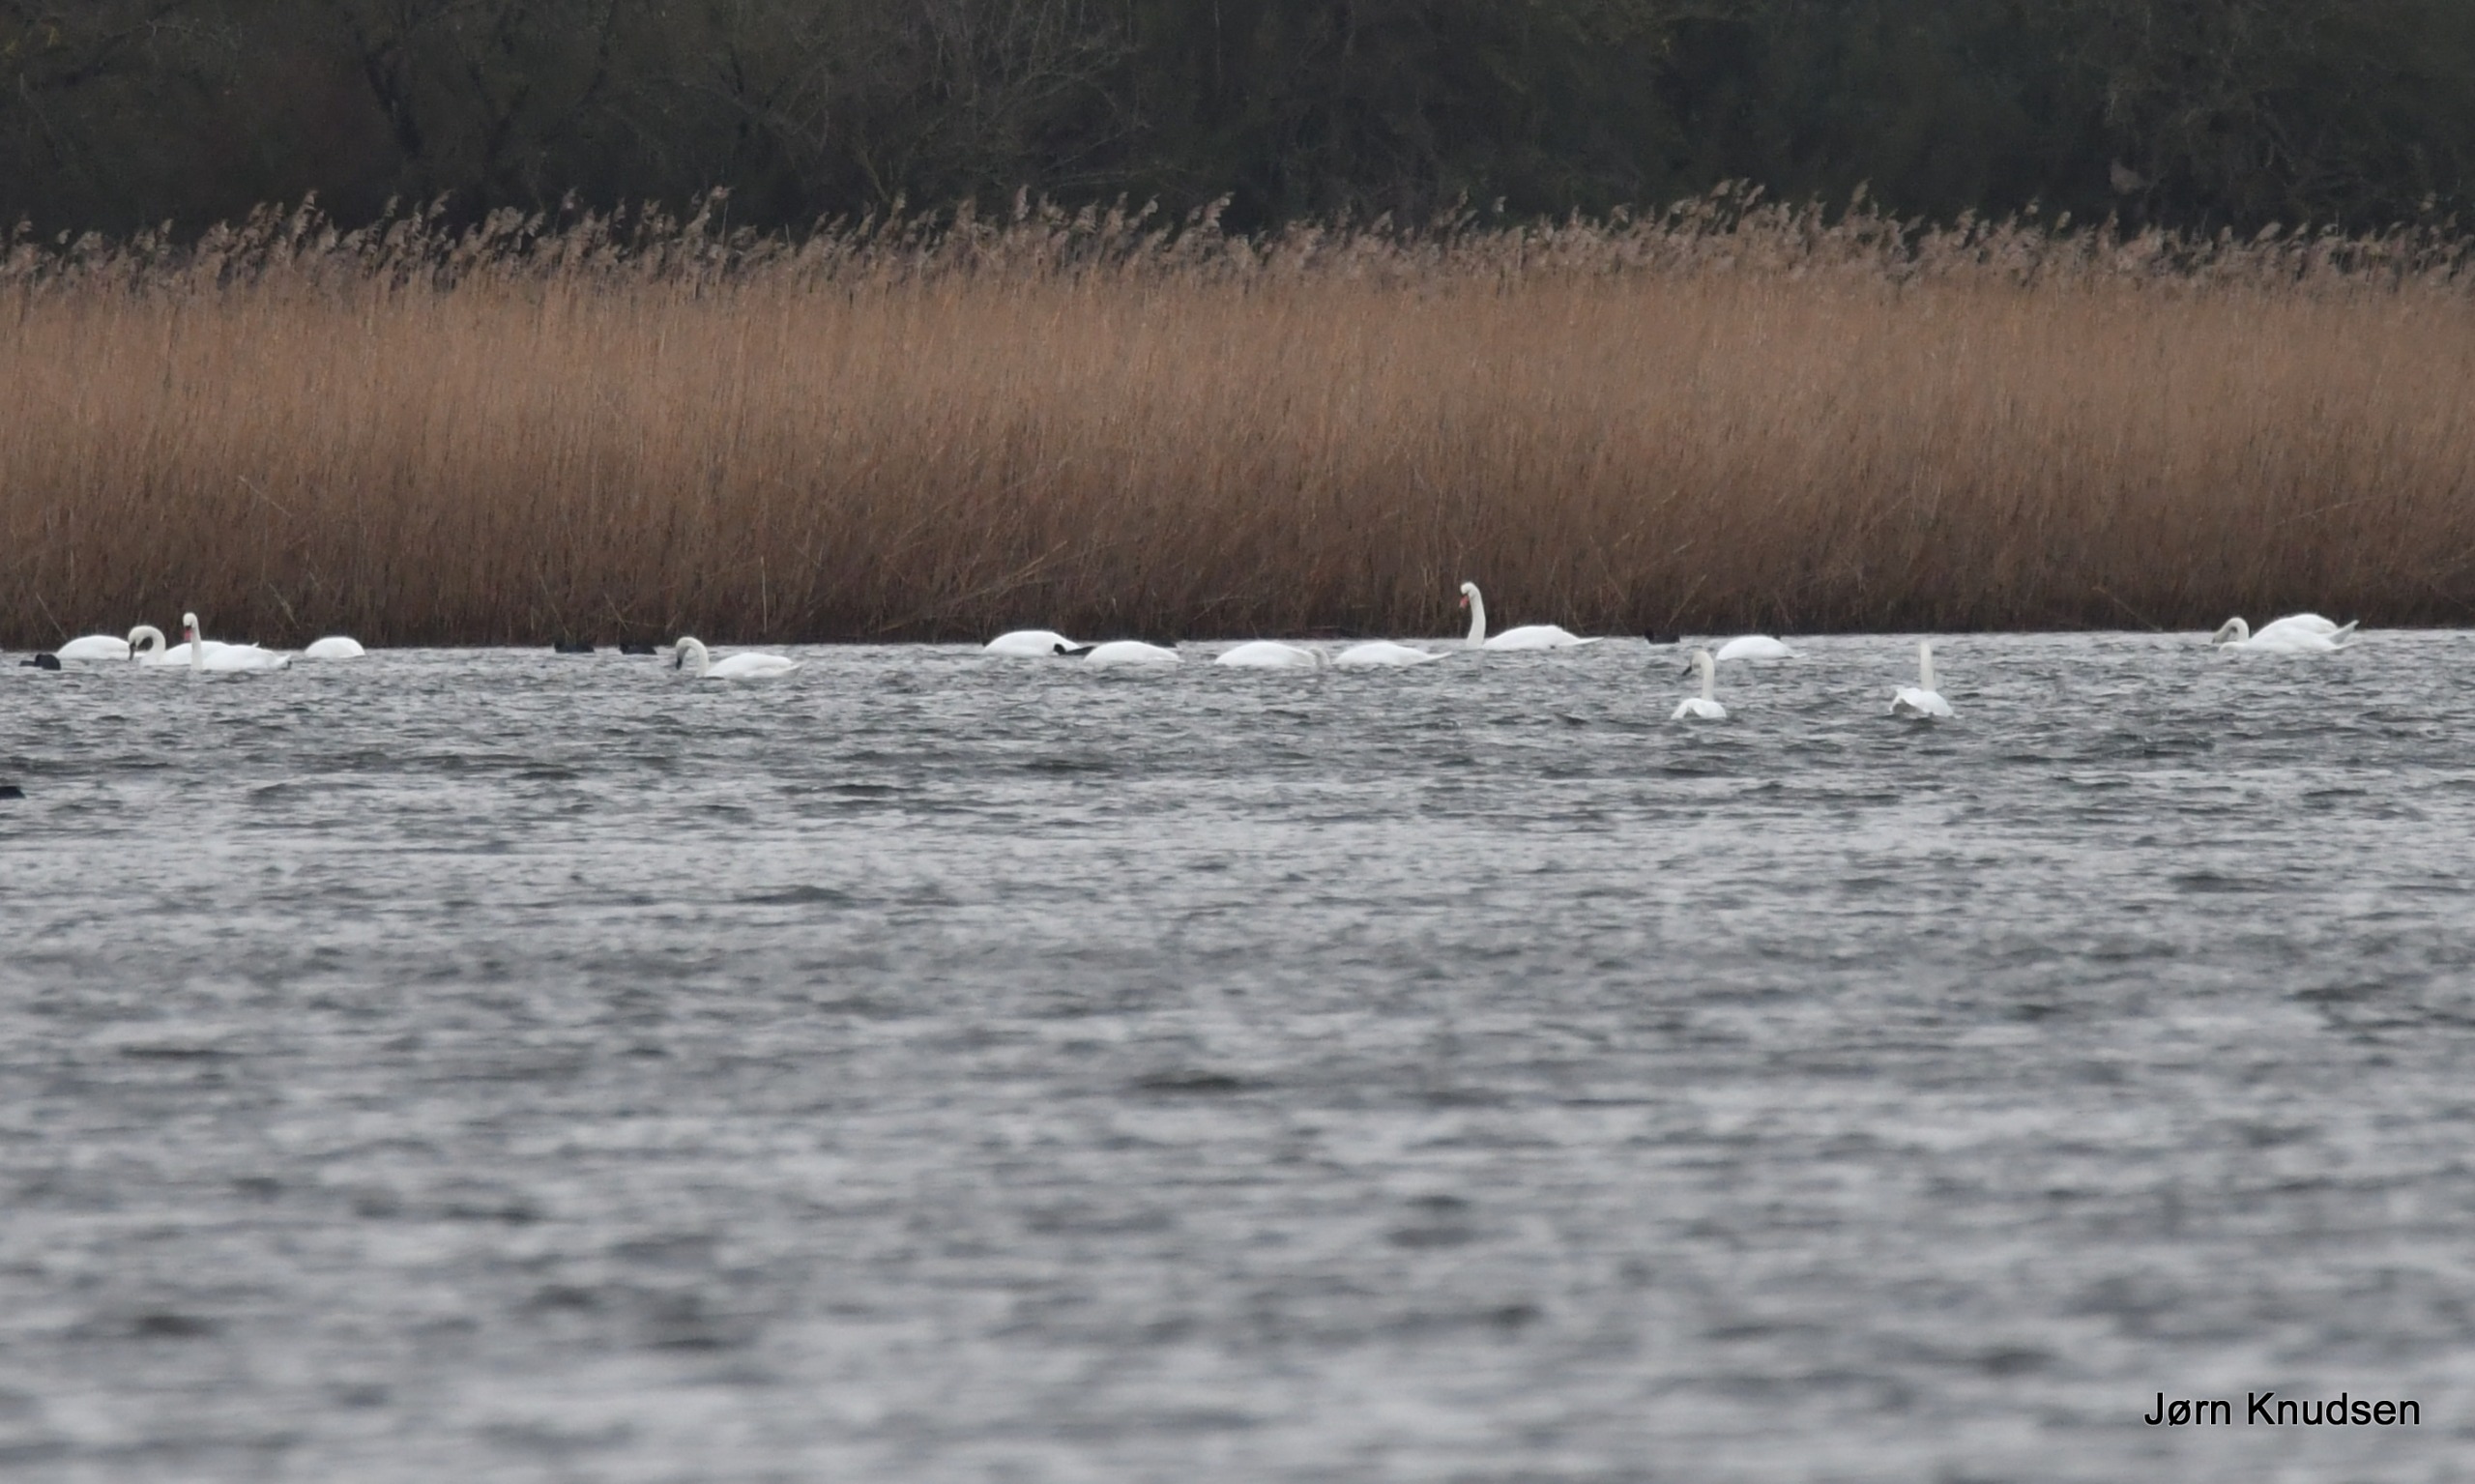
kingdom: Animalia
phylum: Chordata
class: Aves
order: Anseriformes
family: Anatidae
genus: Cygnus
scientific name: Cygnus olor
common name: Knopsvane
